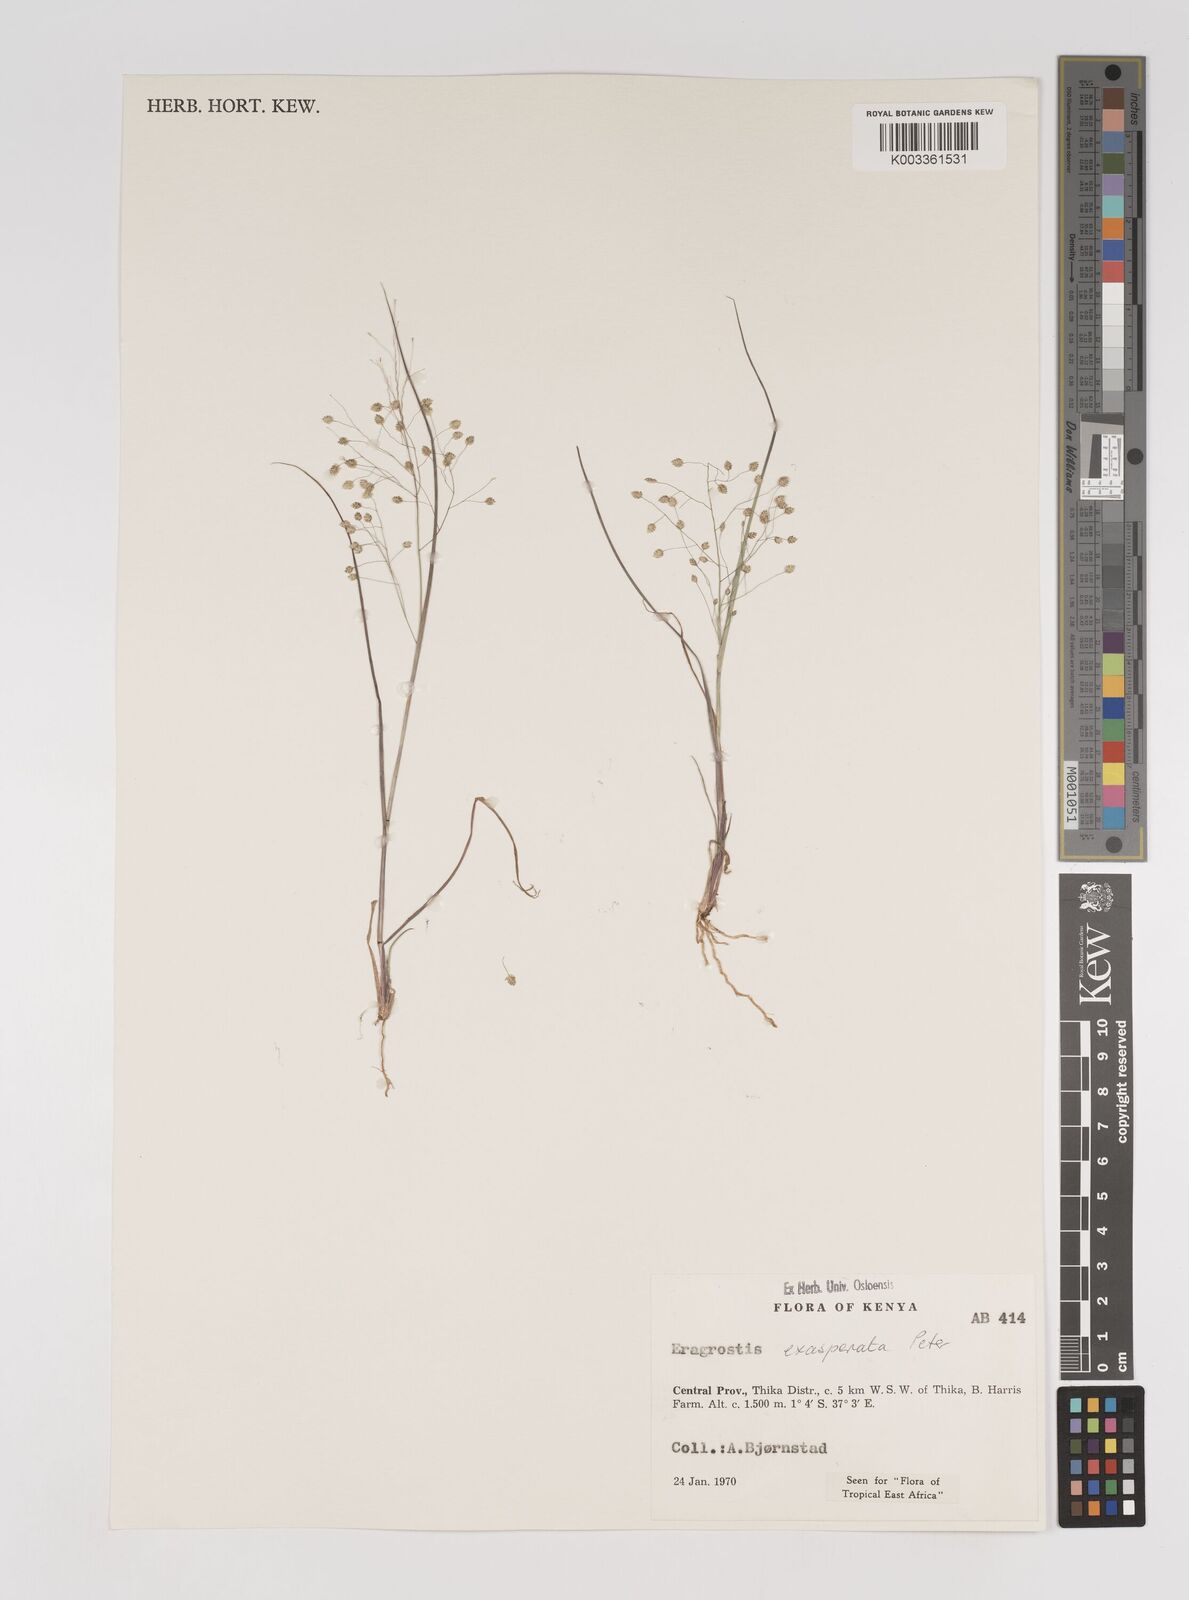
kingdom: Plantae
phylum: Tracheophyta
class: Liliopsida
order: Poales
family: Poaceae
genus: Eragrostis
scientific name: Eragrostis exasperata
